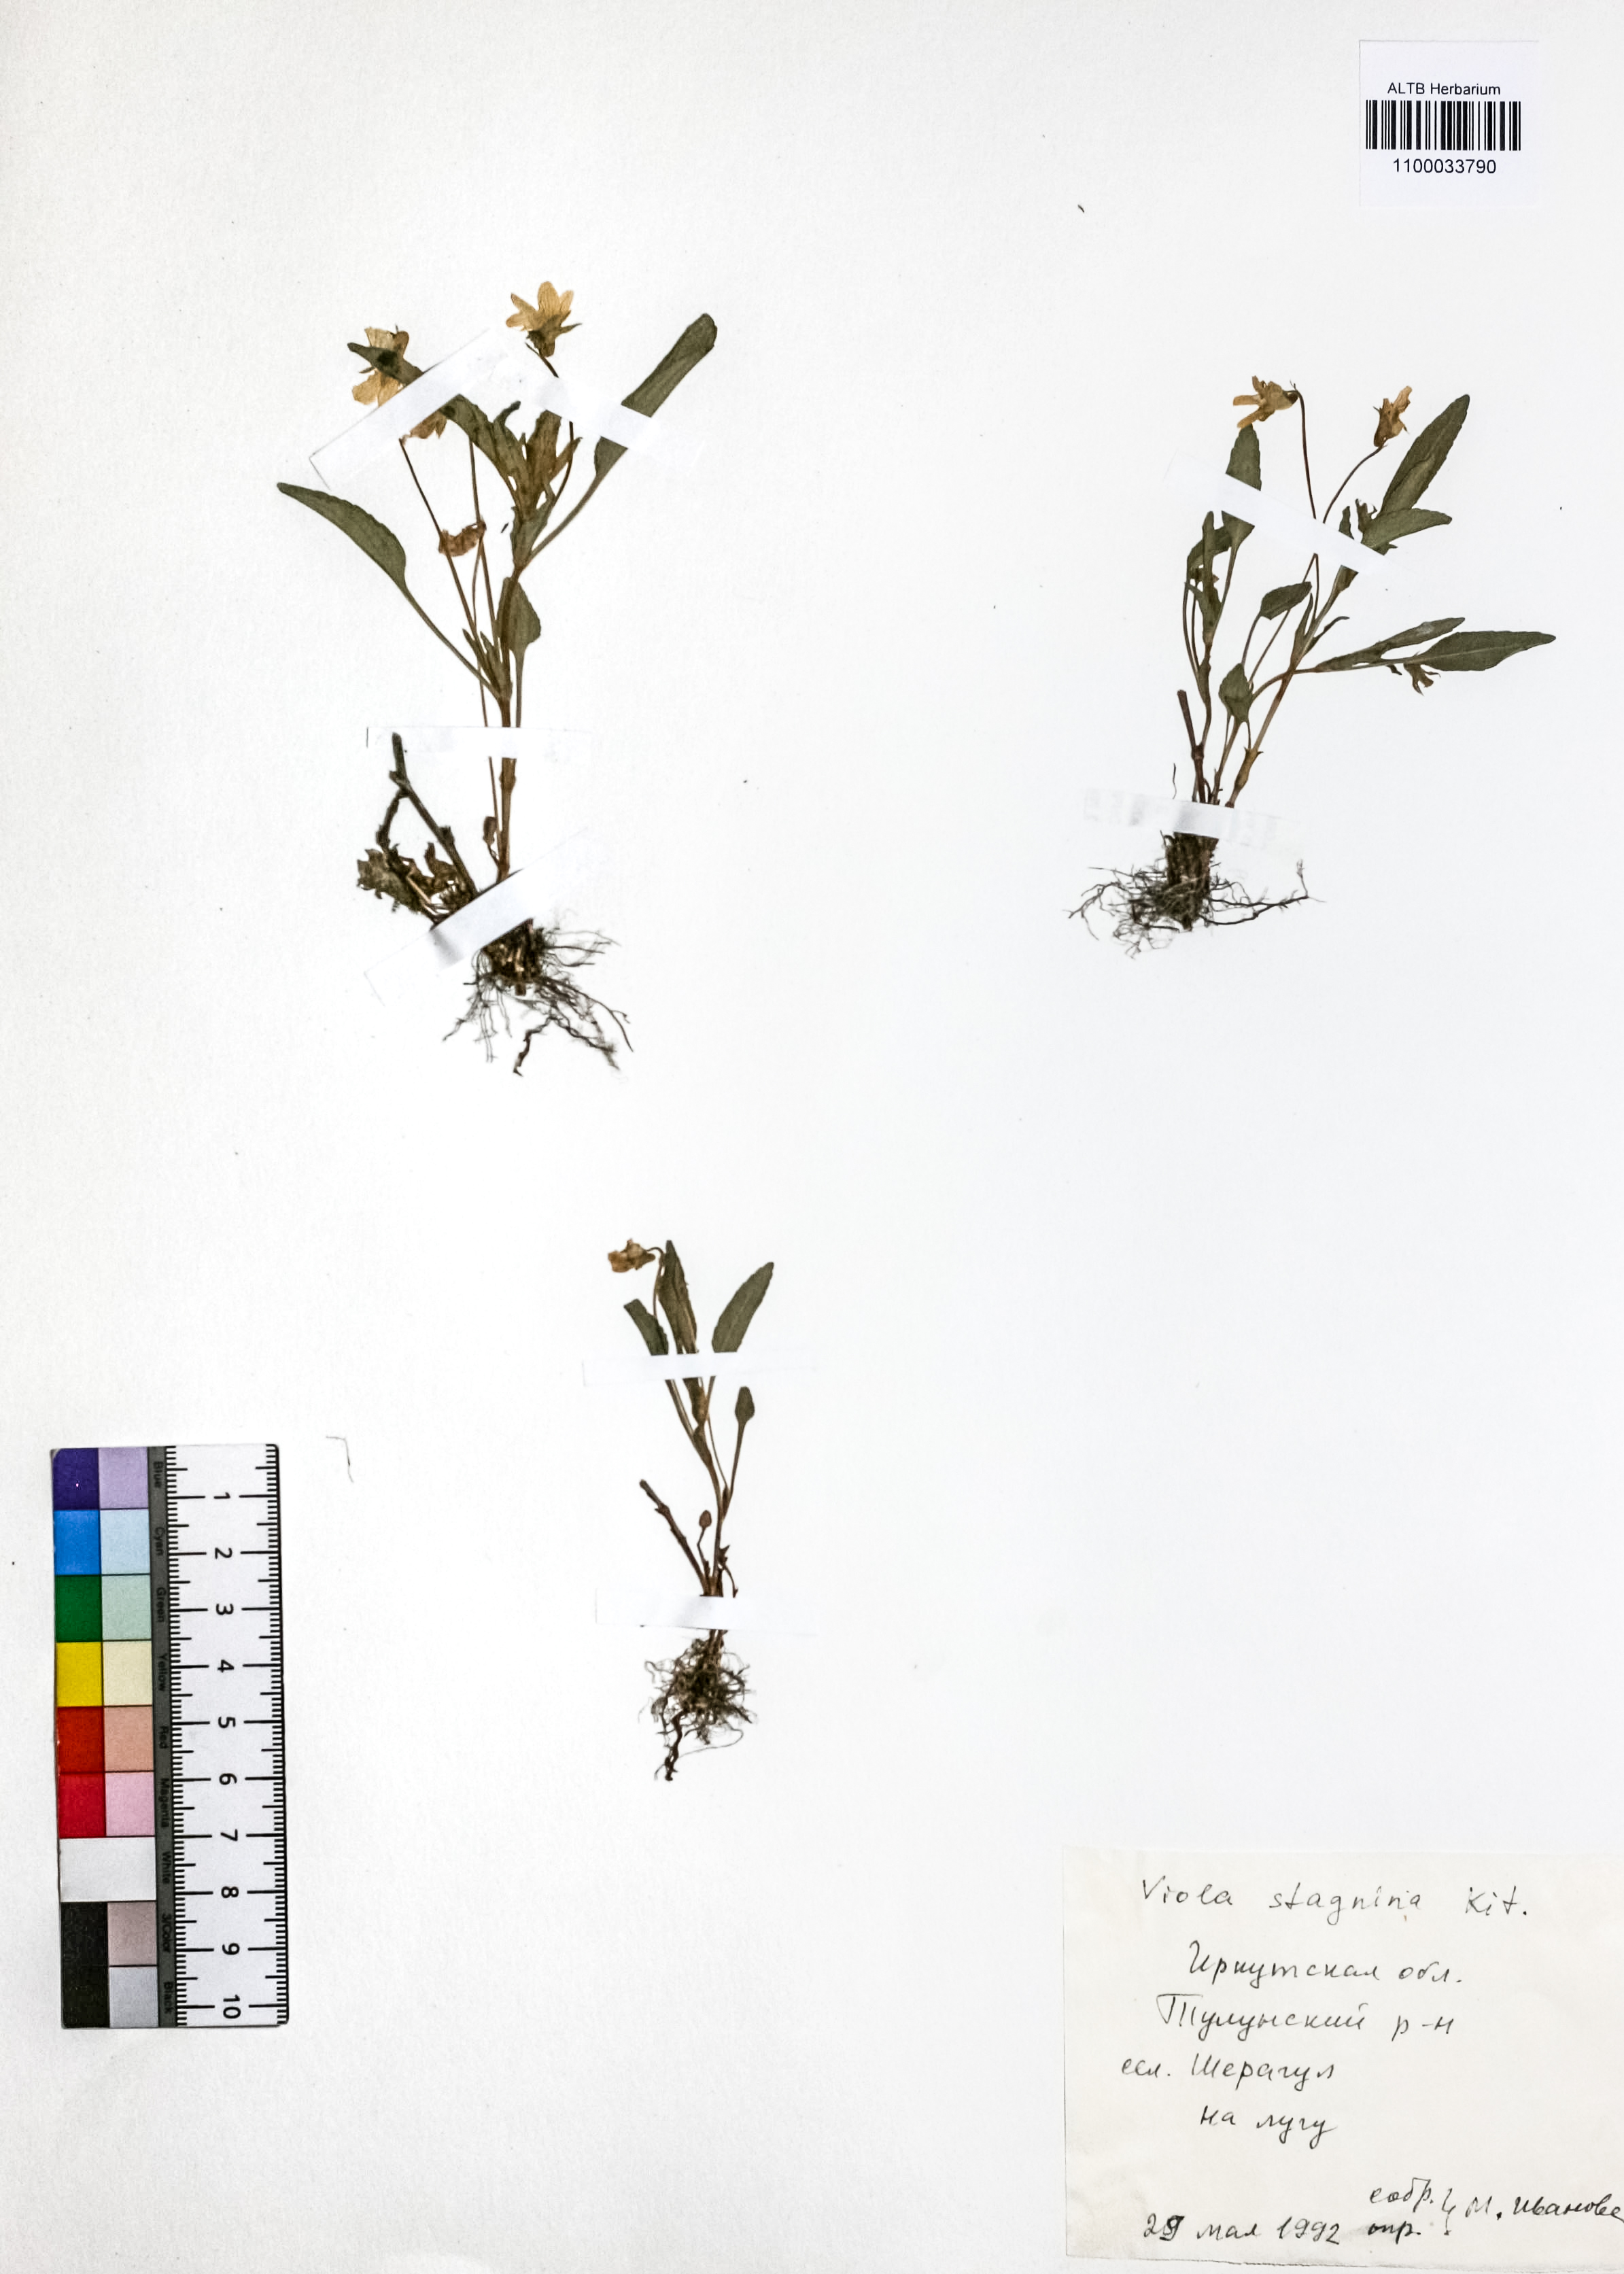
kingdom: Plantae
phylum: Tracheophyta
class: Magnoliopsida
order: Malpighiales
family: Violaceae
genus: Viola
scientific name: Viola stagnina
